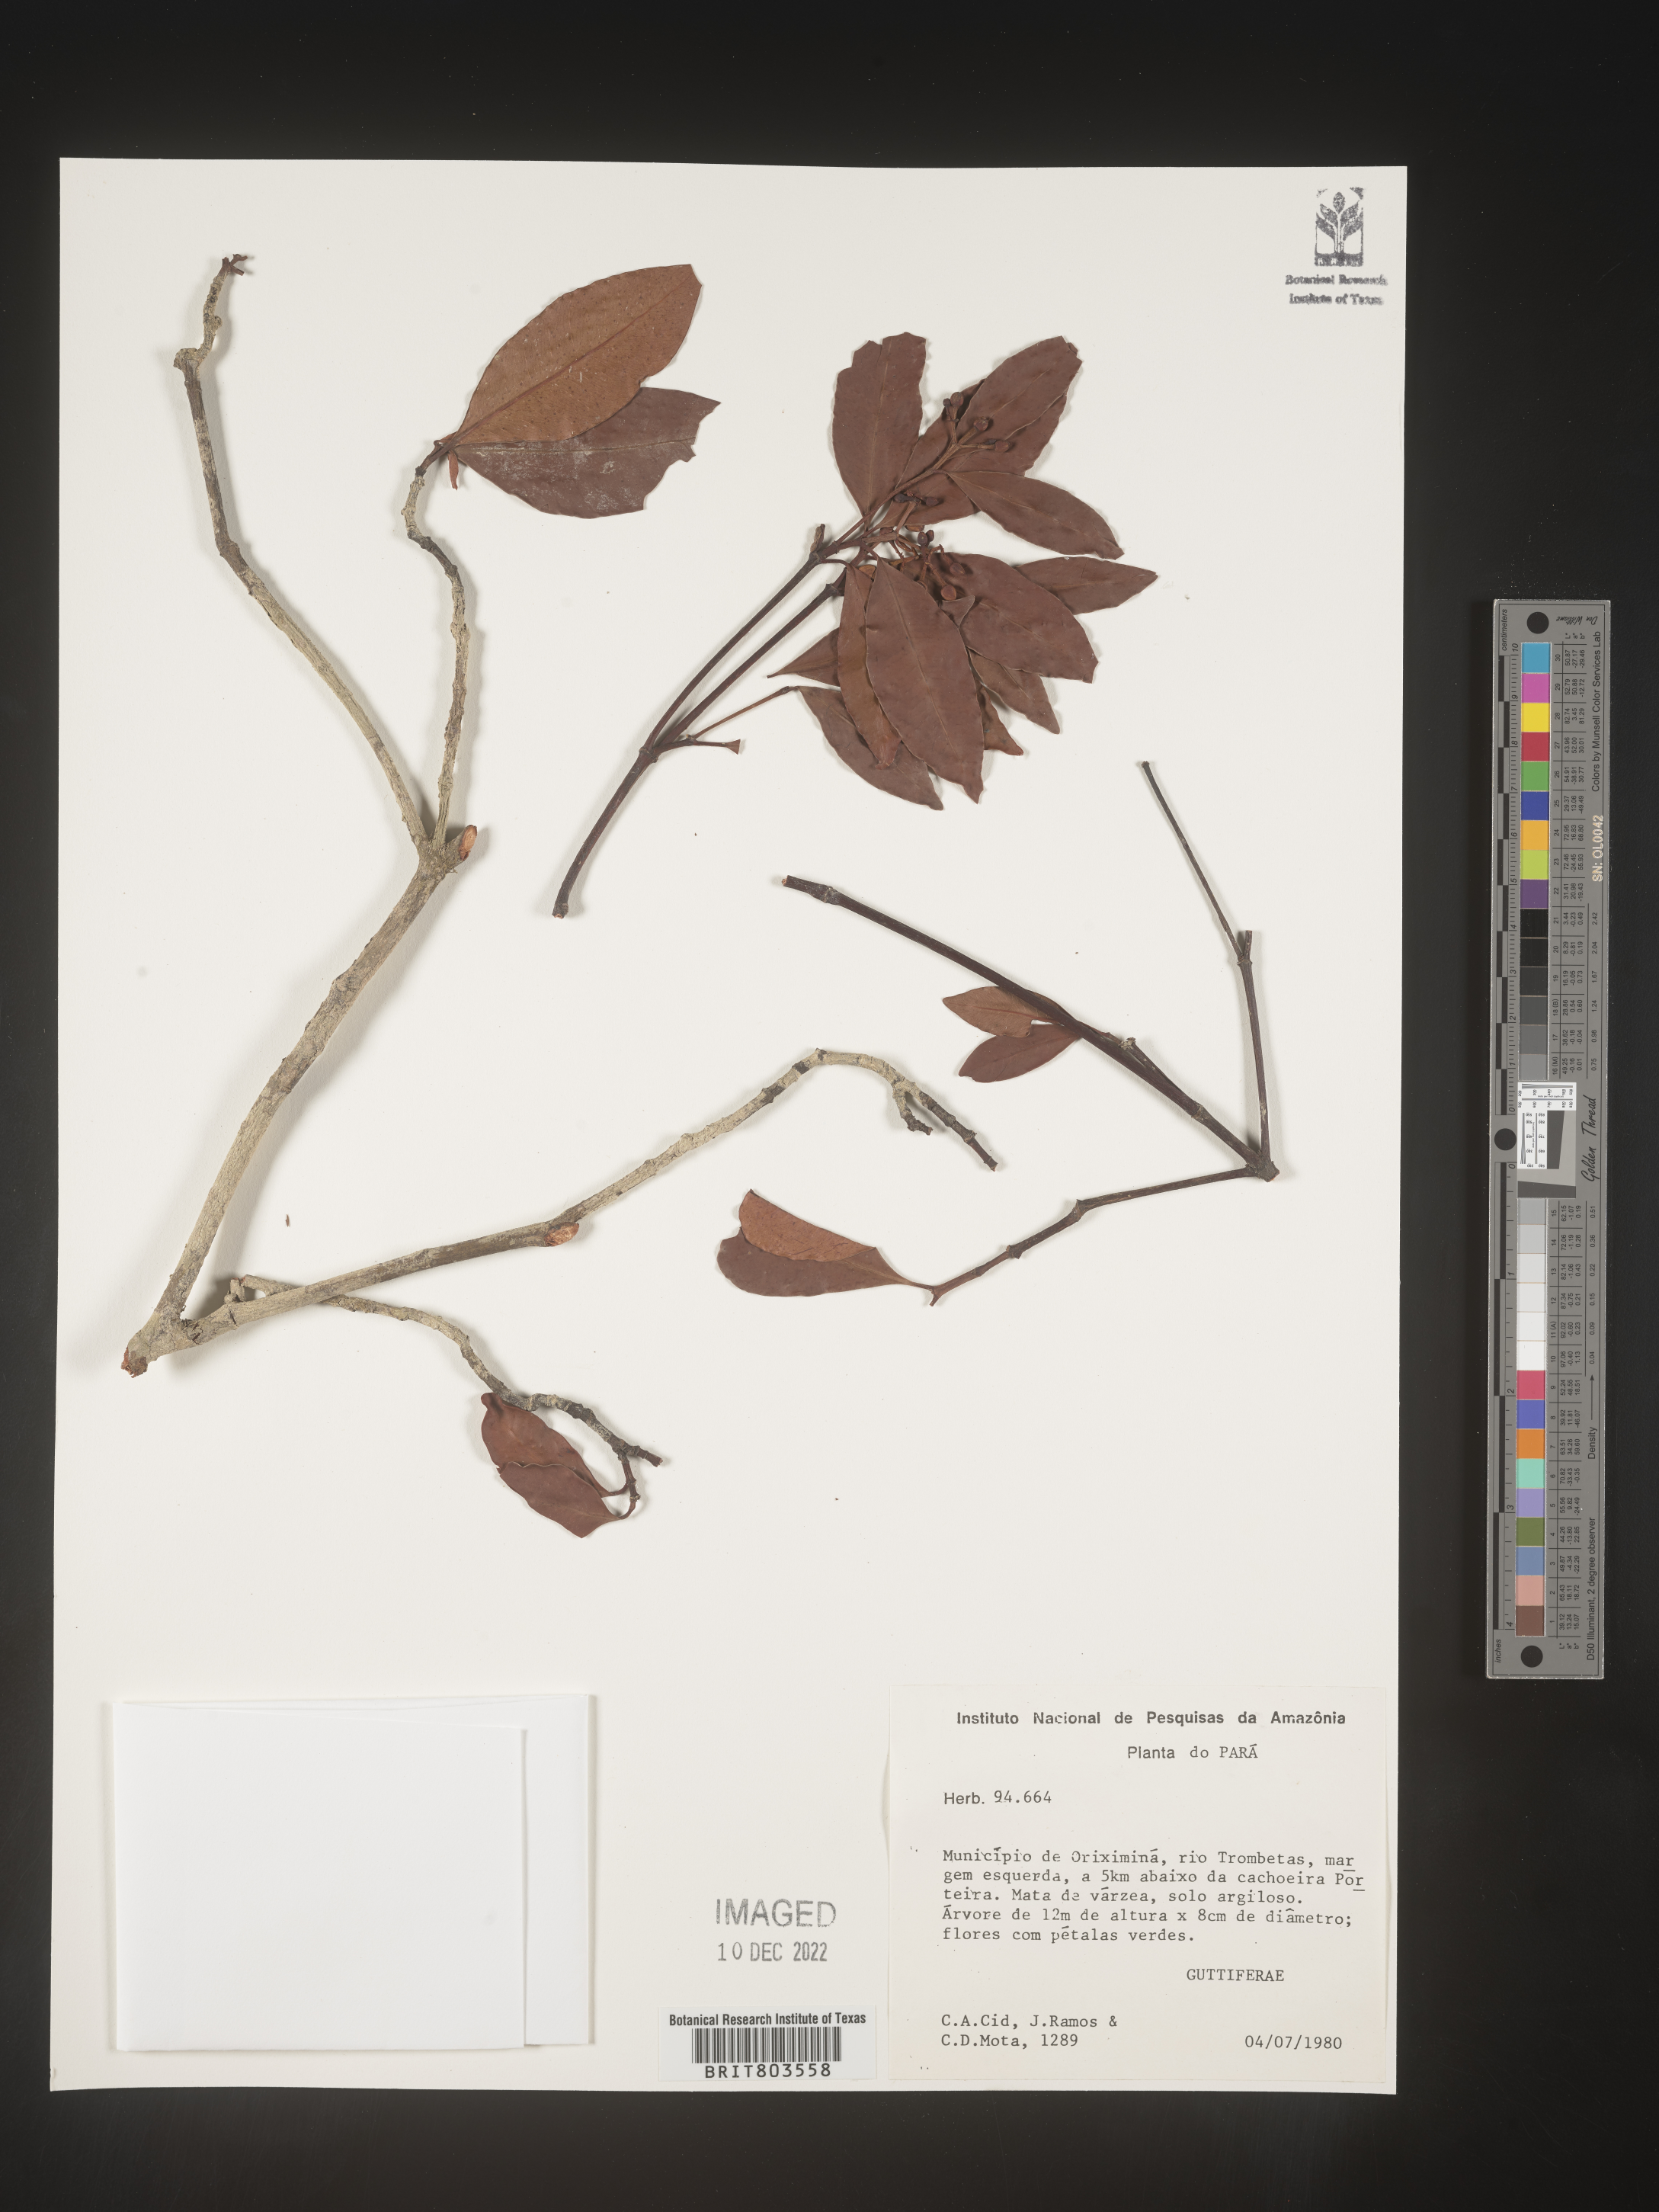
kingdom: Plantae
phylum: Tracheophyta
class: Magnoliopsida
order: Malpighiales
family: Clusiaceae
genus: Tovomita
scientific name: Tovomita
